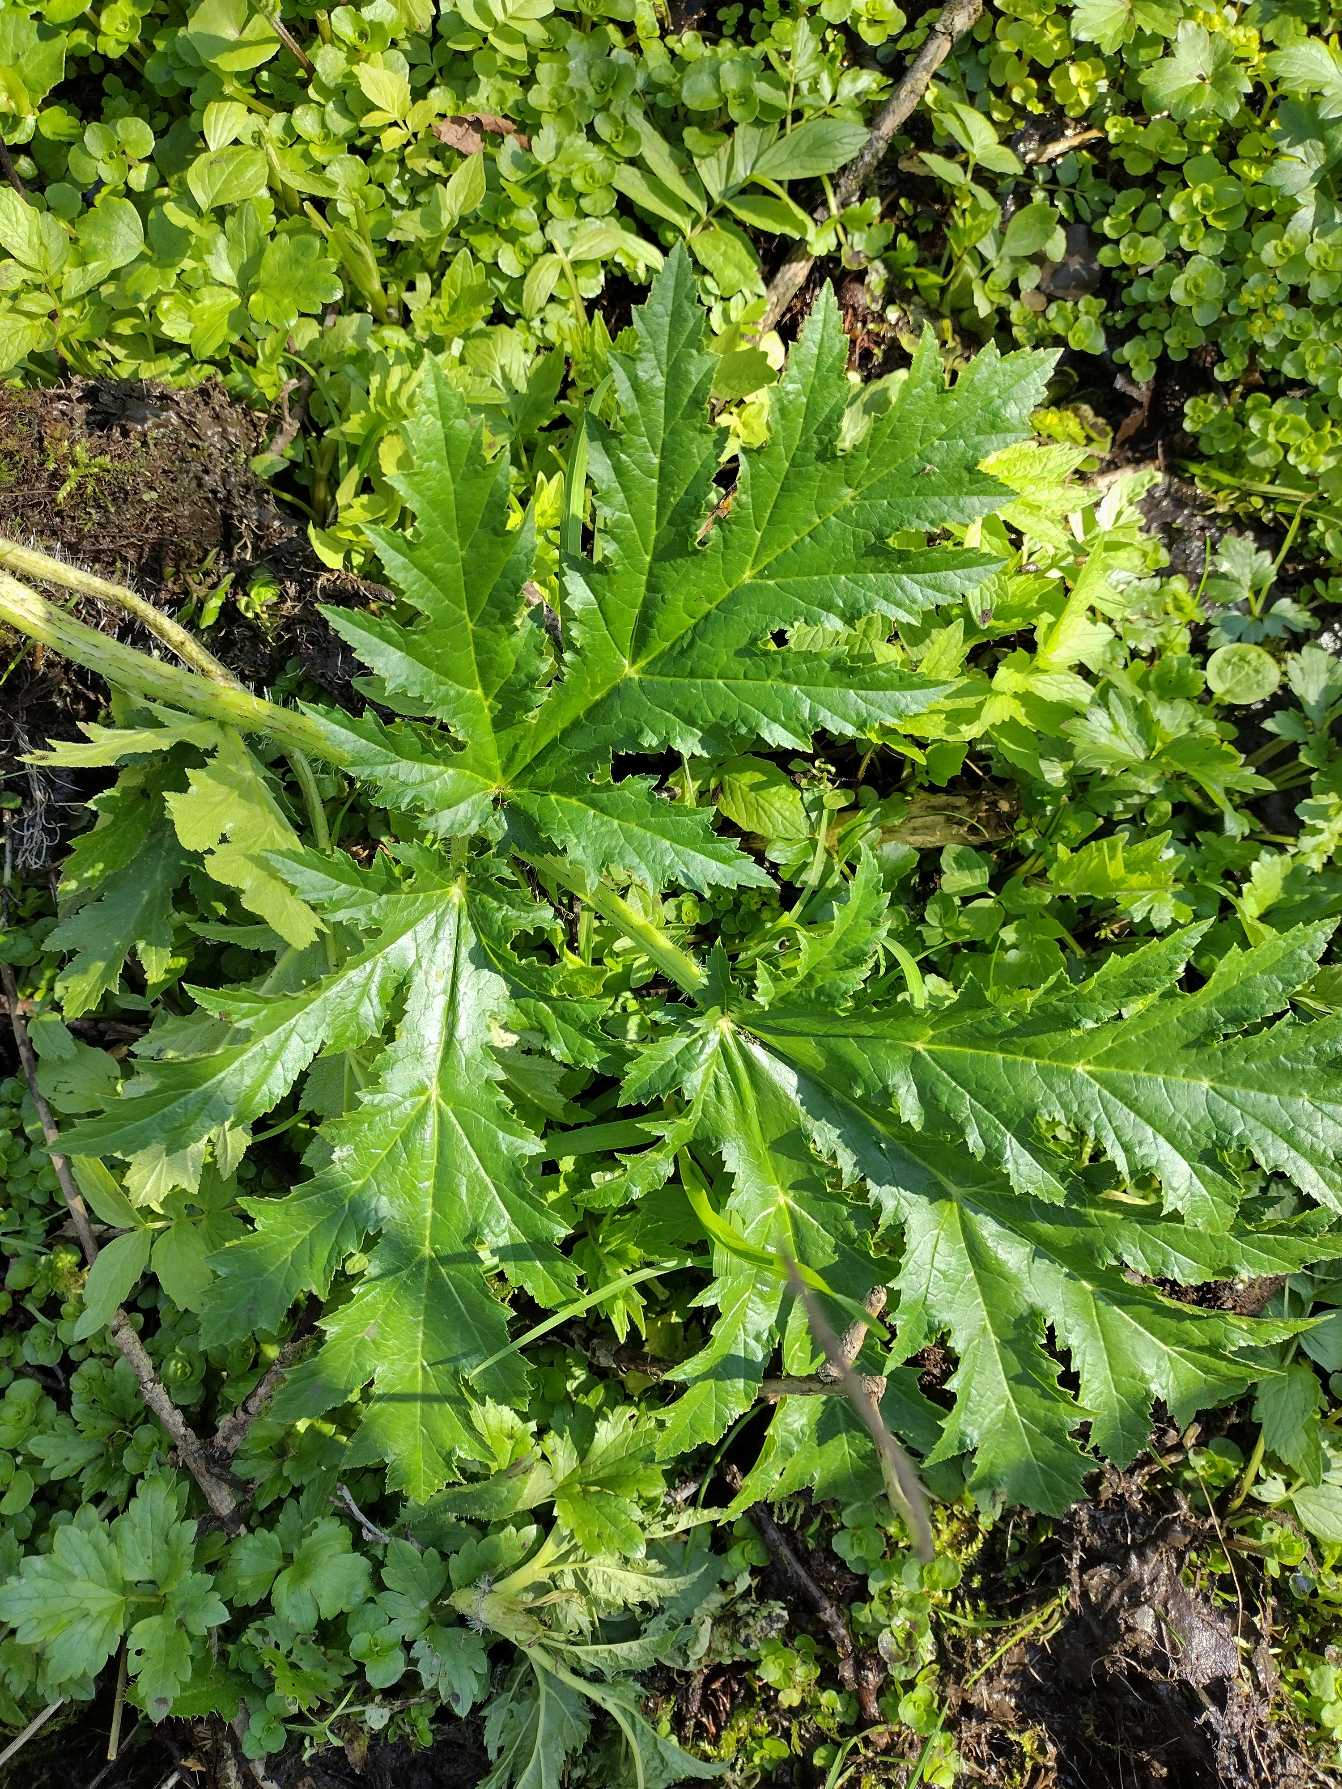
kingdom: Plantae
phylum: Tracheophyta
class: Magnoliopsida
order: Apiales
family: Apiaceae
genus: Heracleum
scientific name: Heracleum mantegazzianum
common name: Kæmpe-bjørneklo
